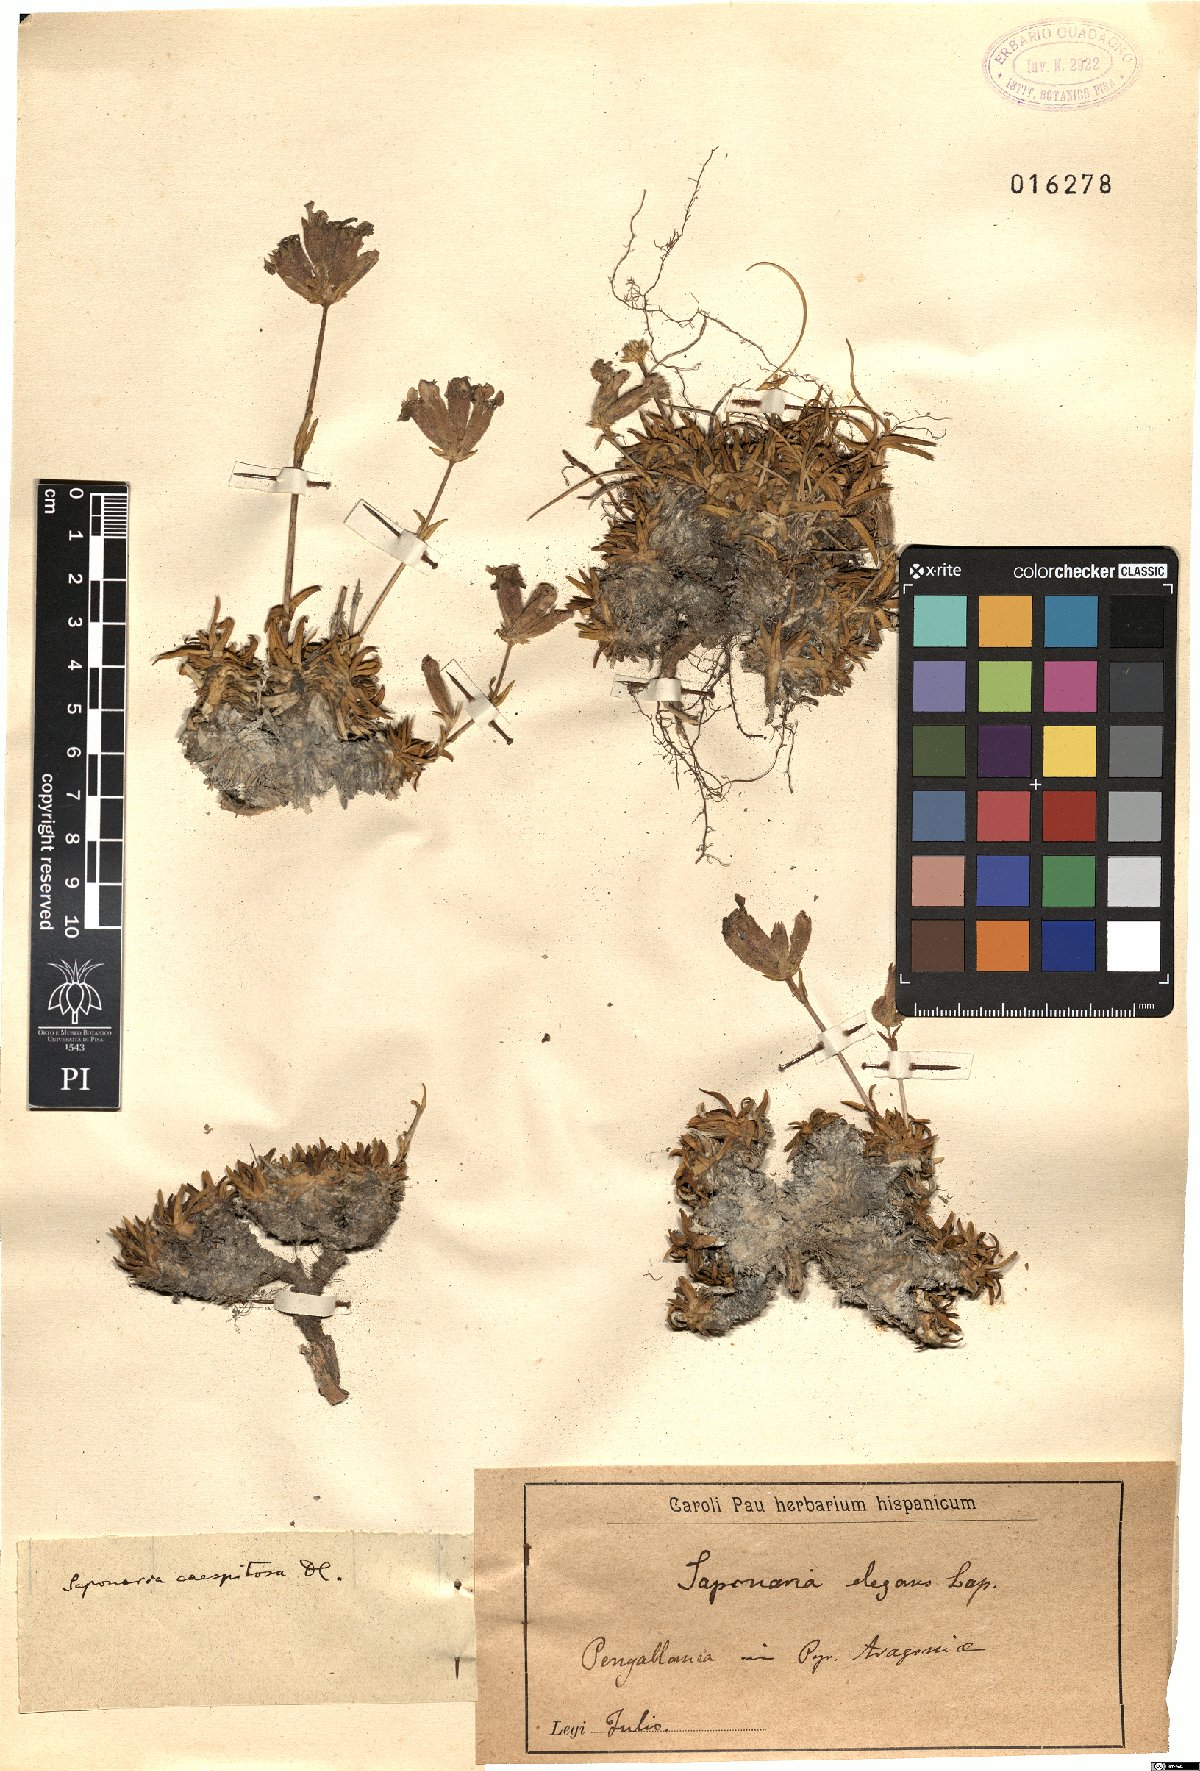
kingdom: Plantae
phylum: Tracheophyta
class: Magnoliopsida
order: Caryophyllales
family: Caryophyllaceae
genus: Saponaria
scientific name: Saponaria caespitosa
